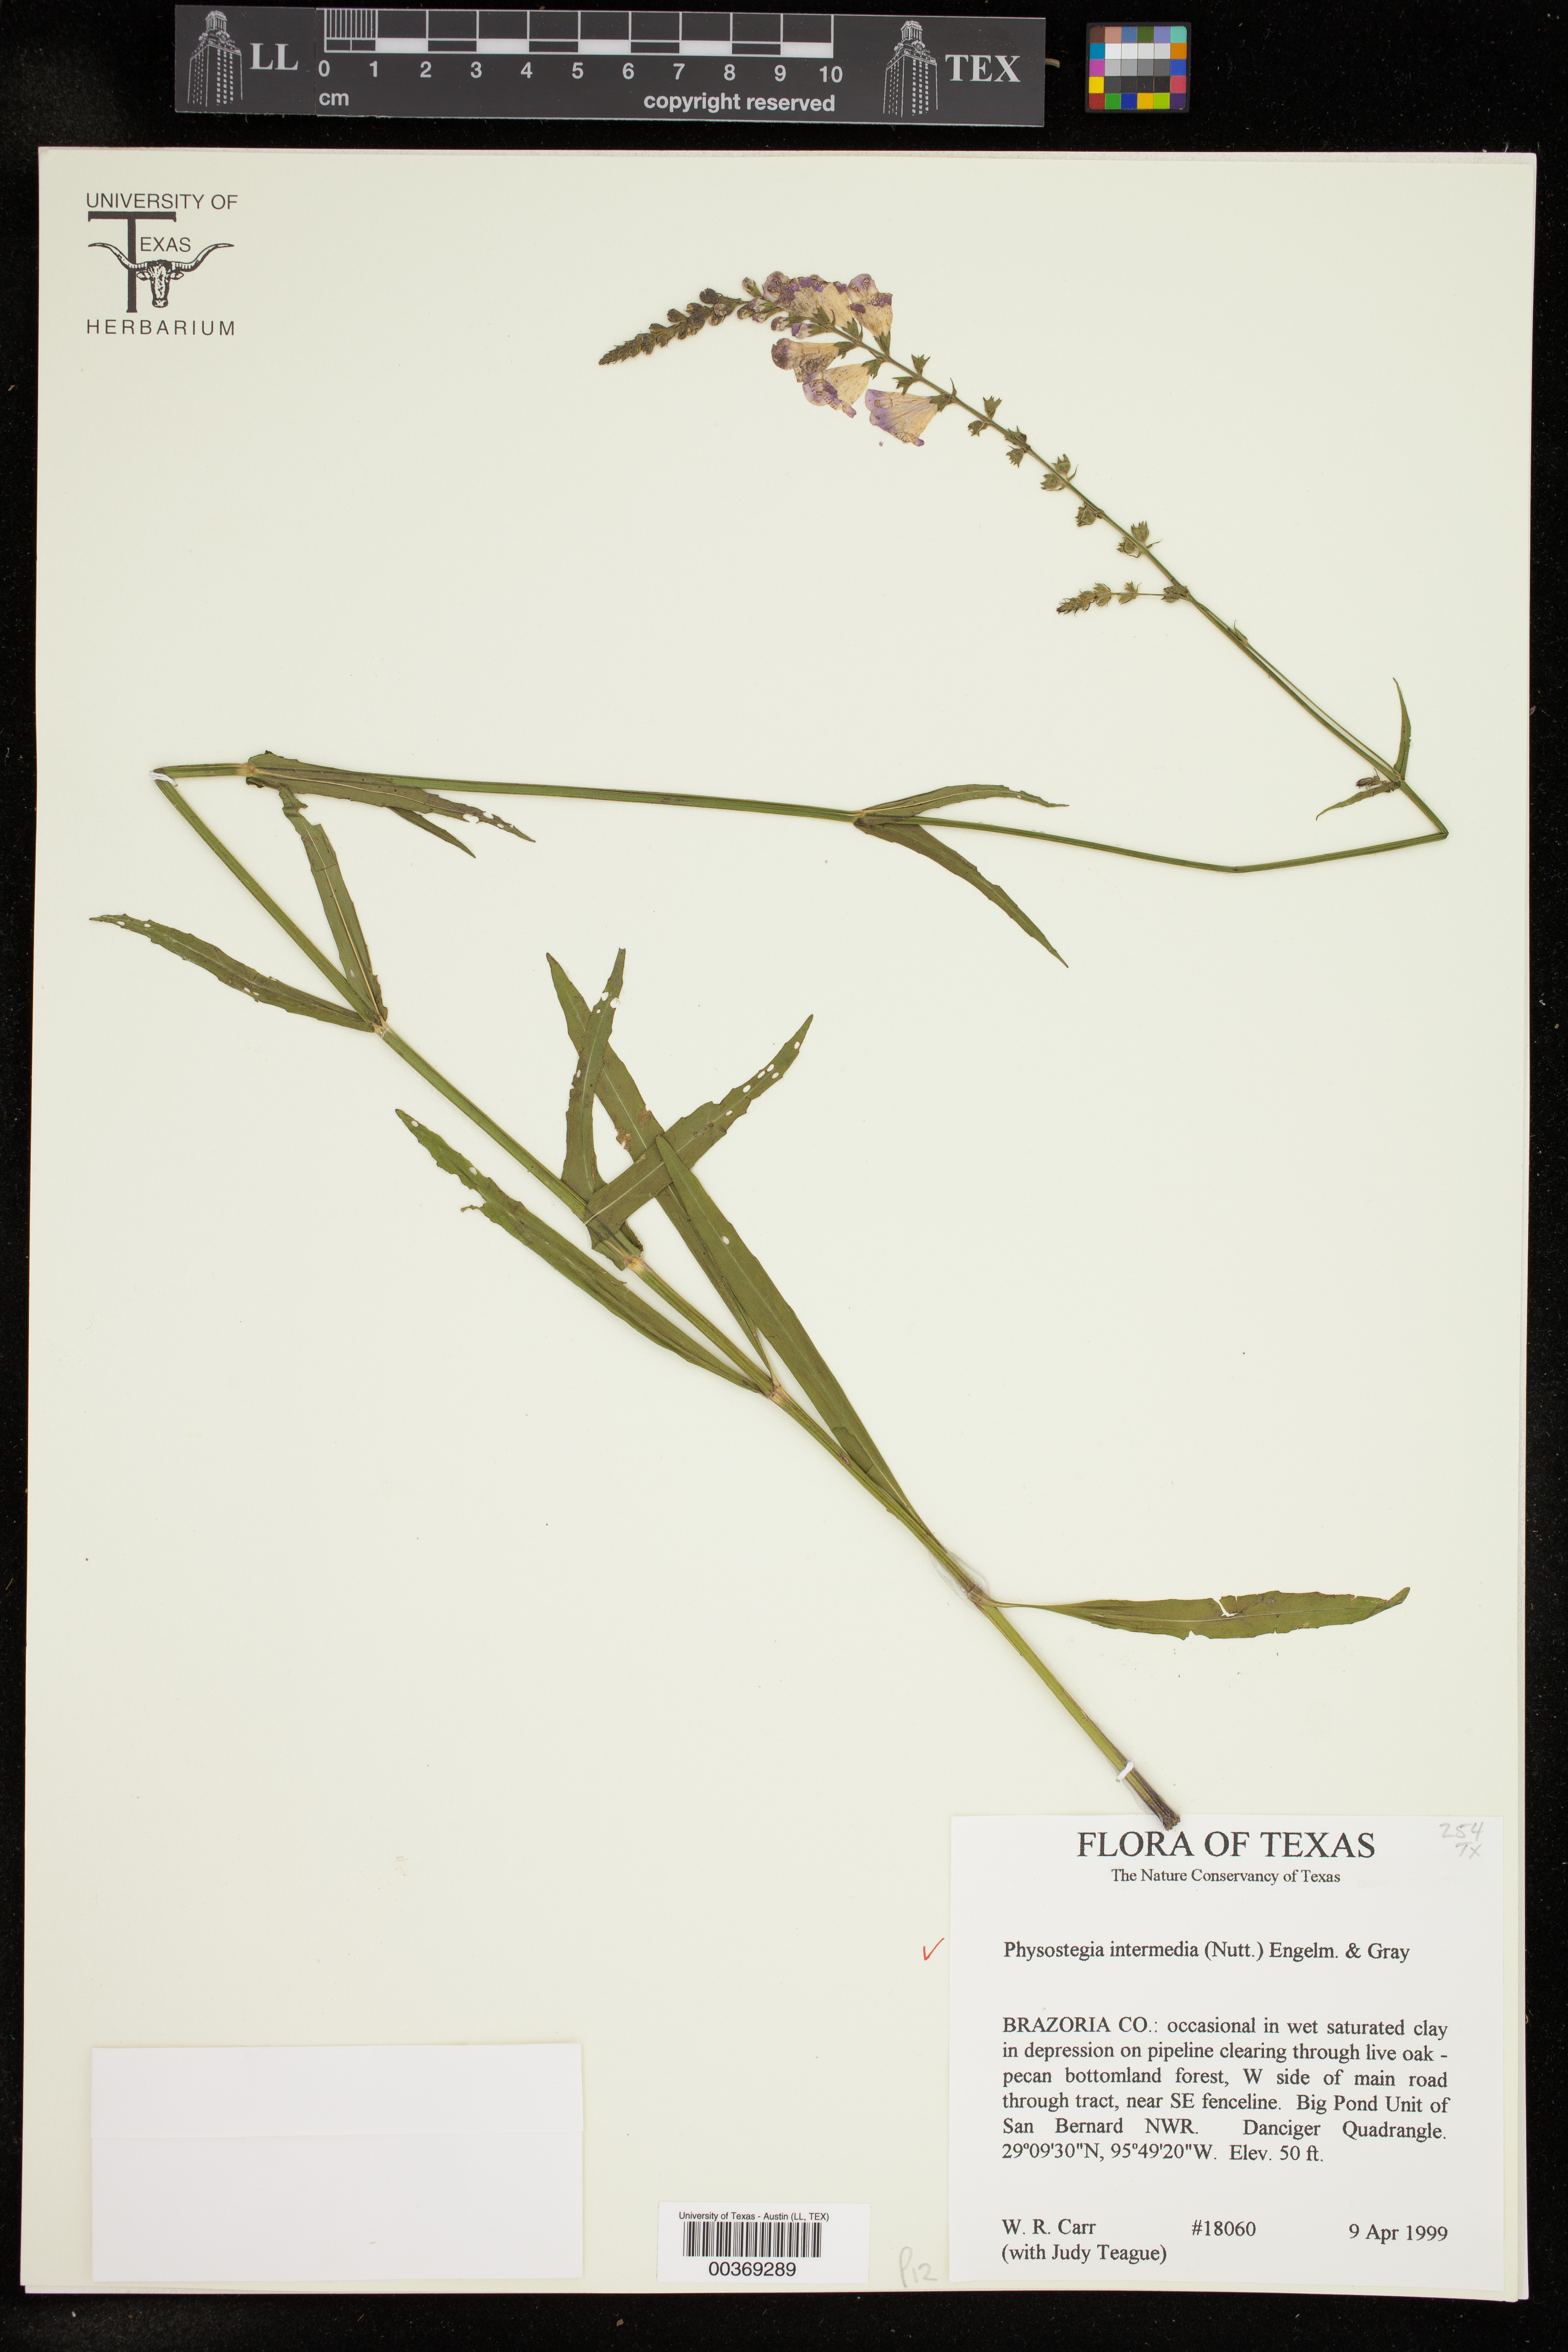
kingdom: Plantae
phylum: Tracheophyta
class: Magnoliopsida
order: Lamiales
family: Lamiaceae
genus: Physostegia
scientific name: Physostegia intermedia
